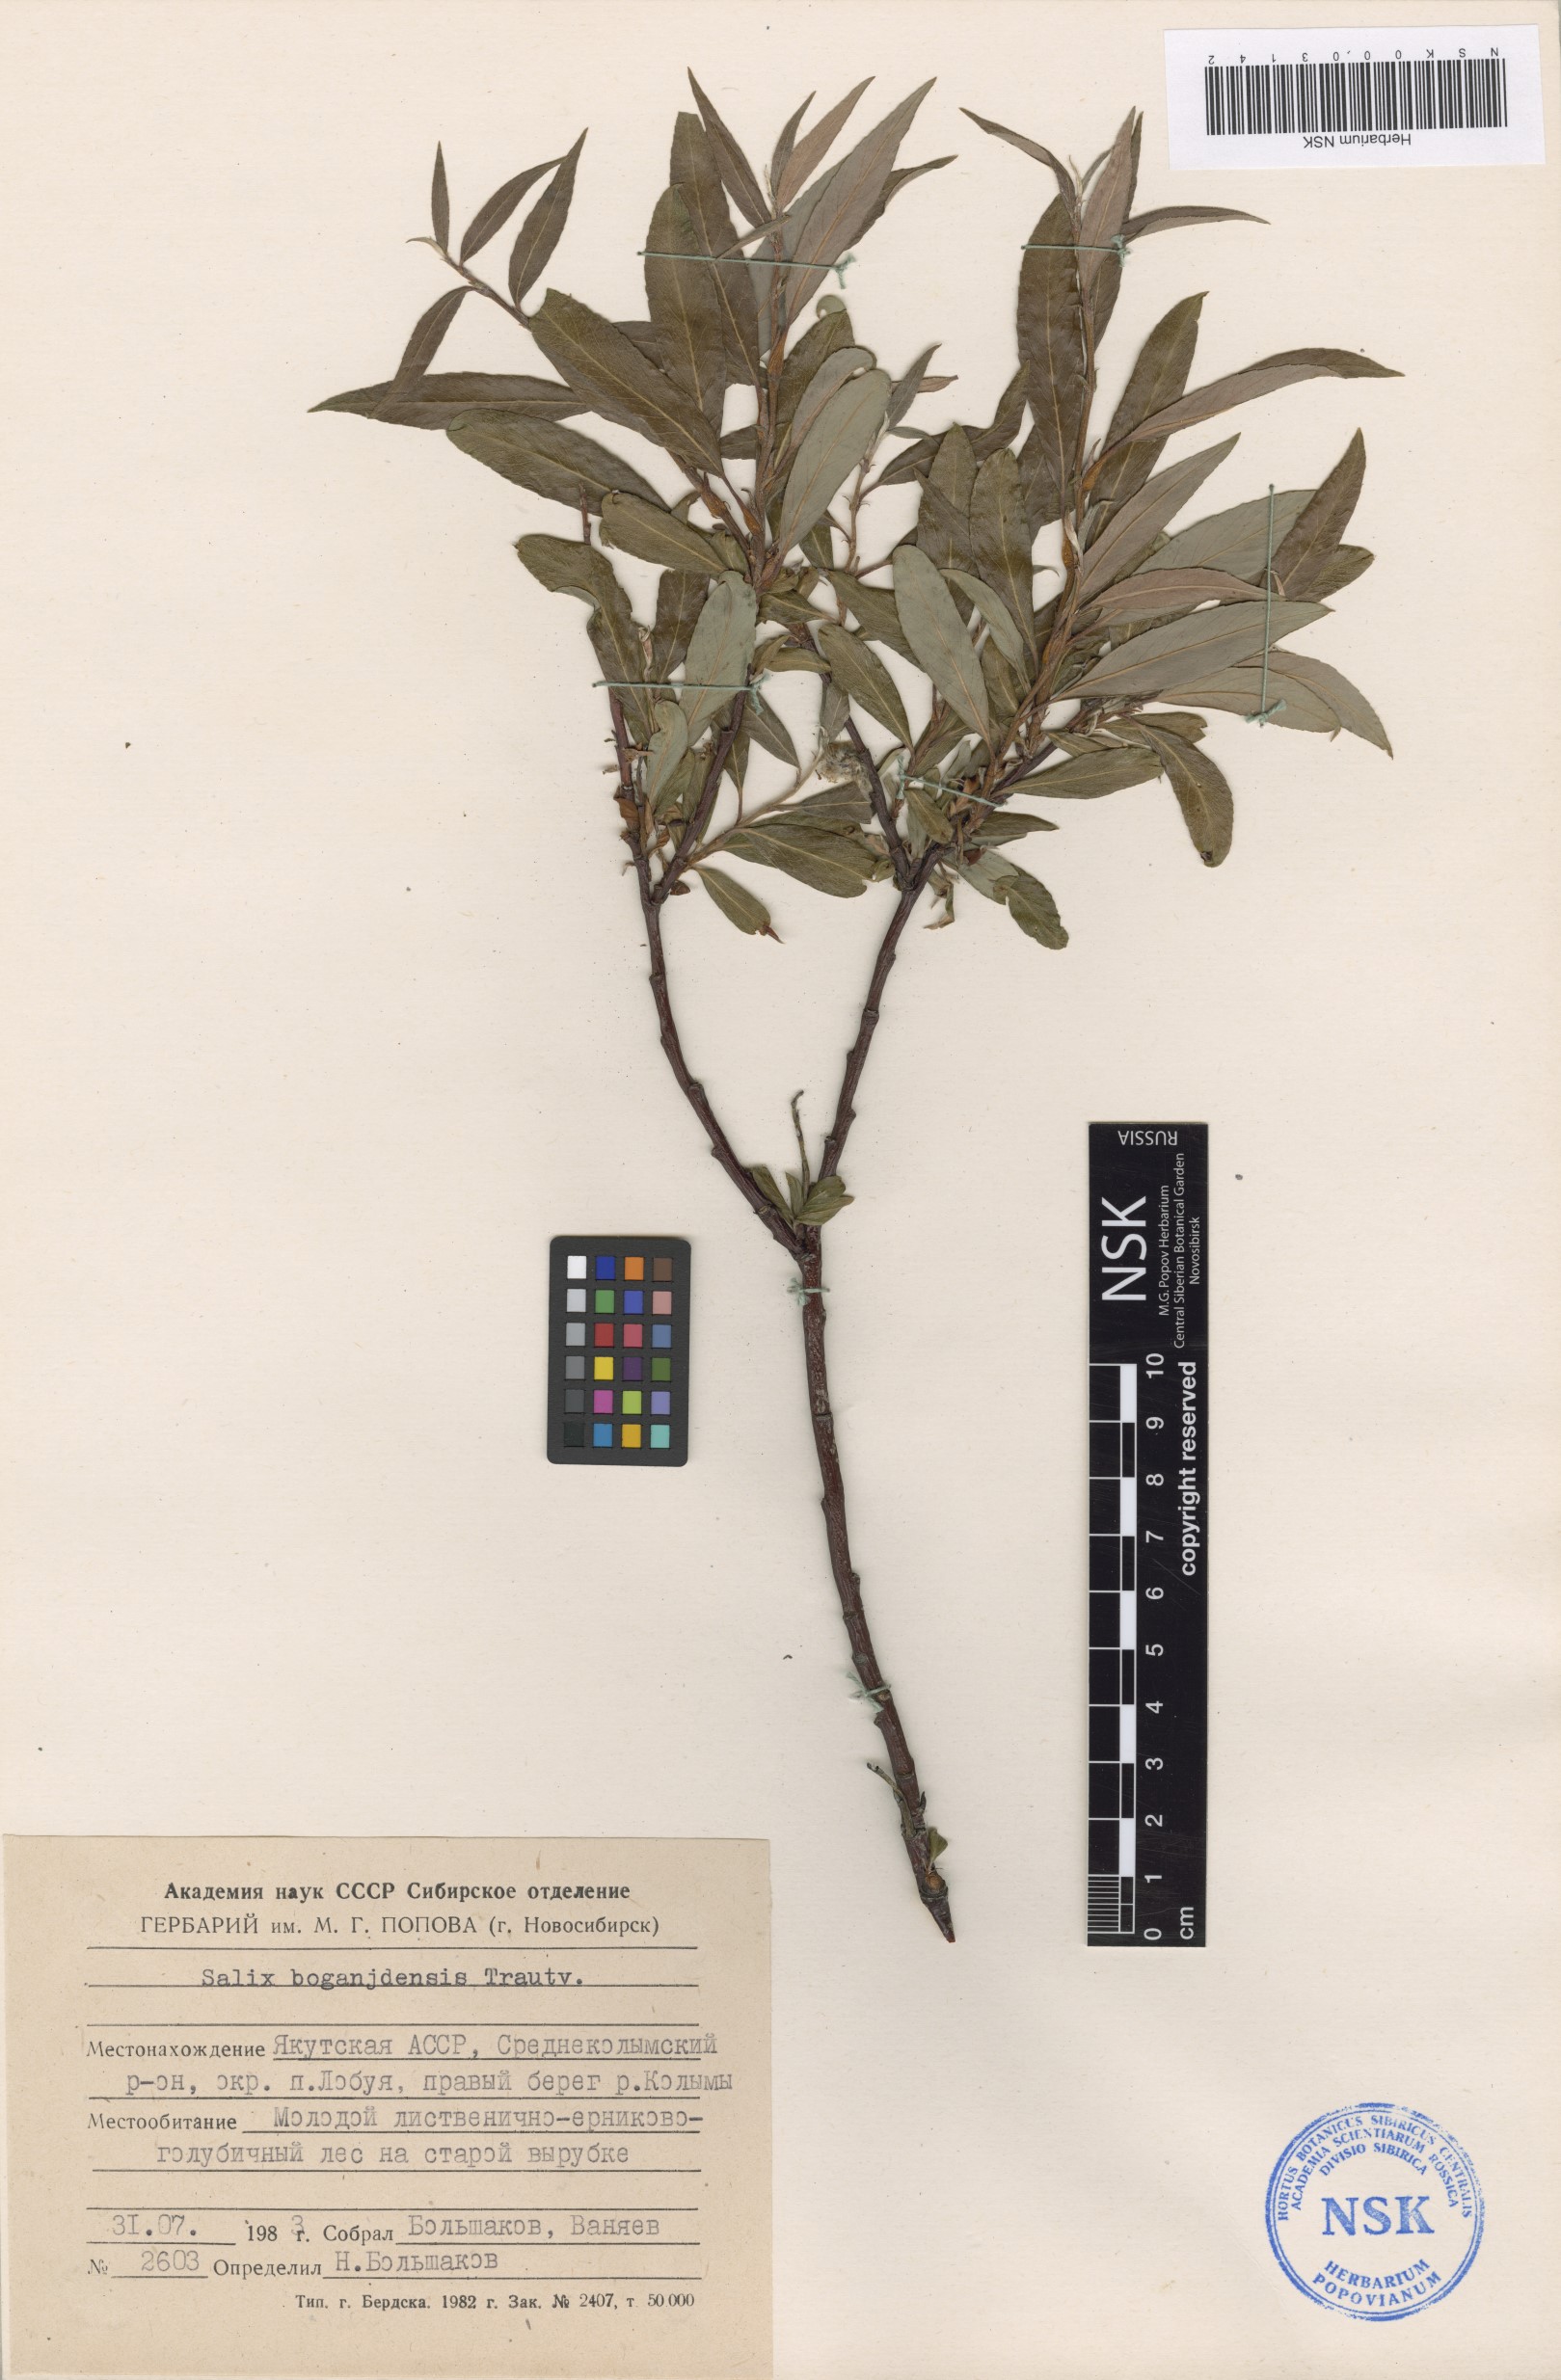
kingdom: Plantae
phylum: Tracheophyta
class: Magnoliopsida
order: Malpighiales
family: Salicaceae
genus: Salix
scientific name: Salix boganidensis
